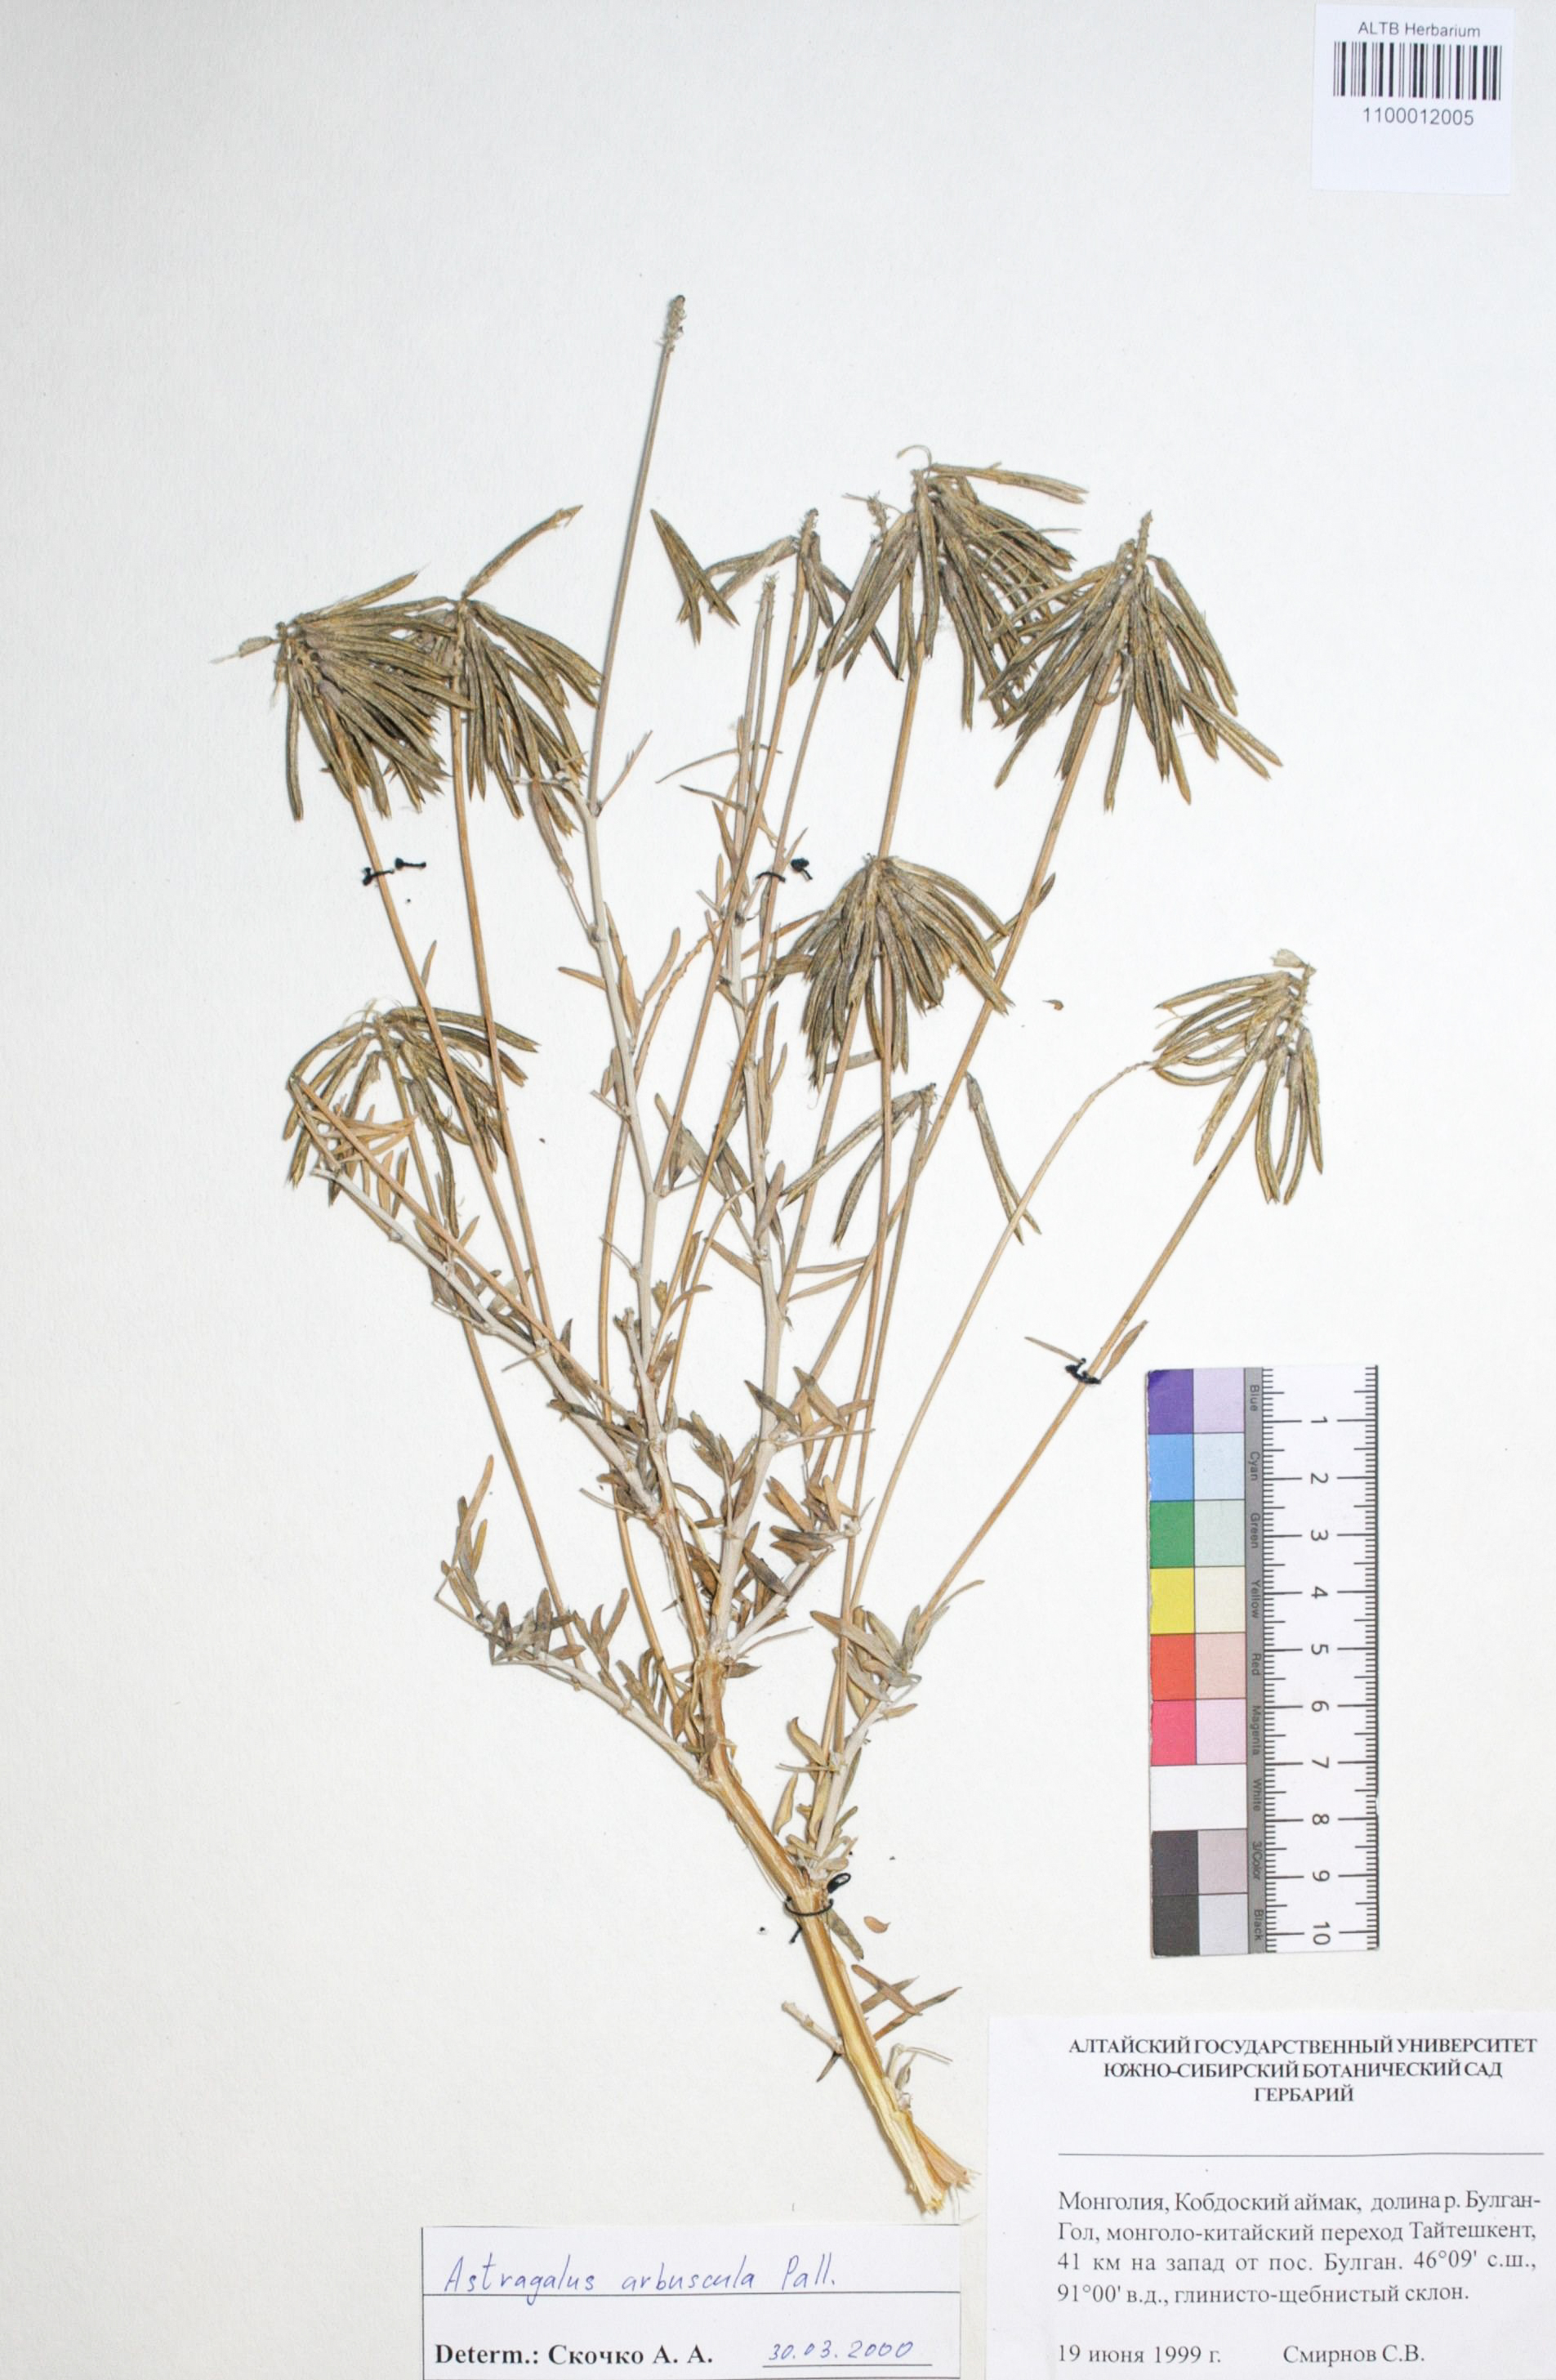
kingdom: Plantae
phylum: Tracheophyta
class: Magnoliopsida
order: Fabales
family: Fabaceae
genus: Astragalus
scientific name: Astragalus arbuscula
